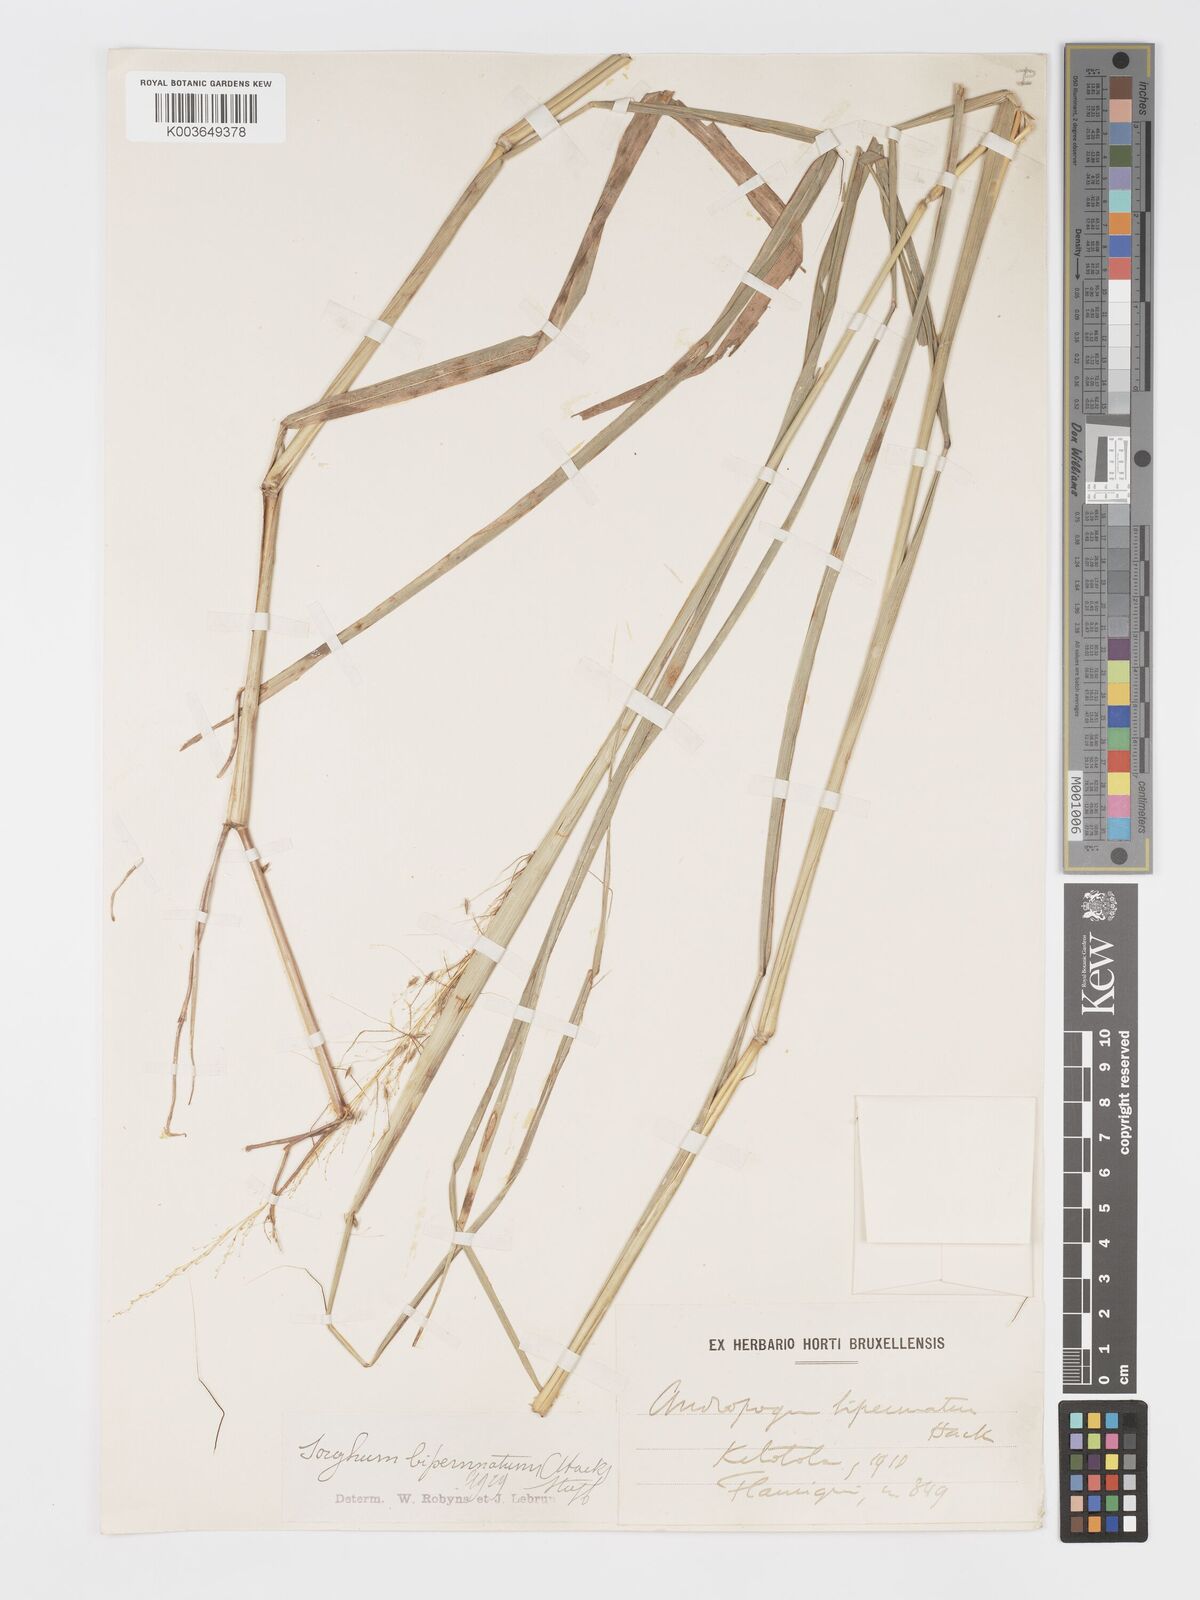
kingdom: Plantae
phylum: Tracheophyta
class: Liliopsida
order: Poales
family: Poaceae
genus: Sorghastrum
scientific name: Sorghastrum incompletum
